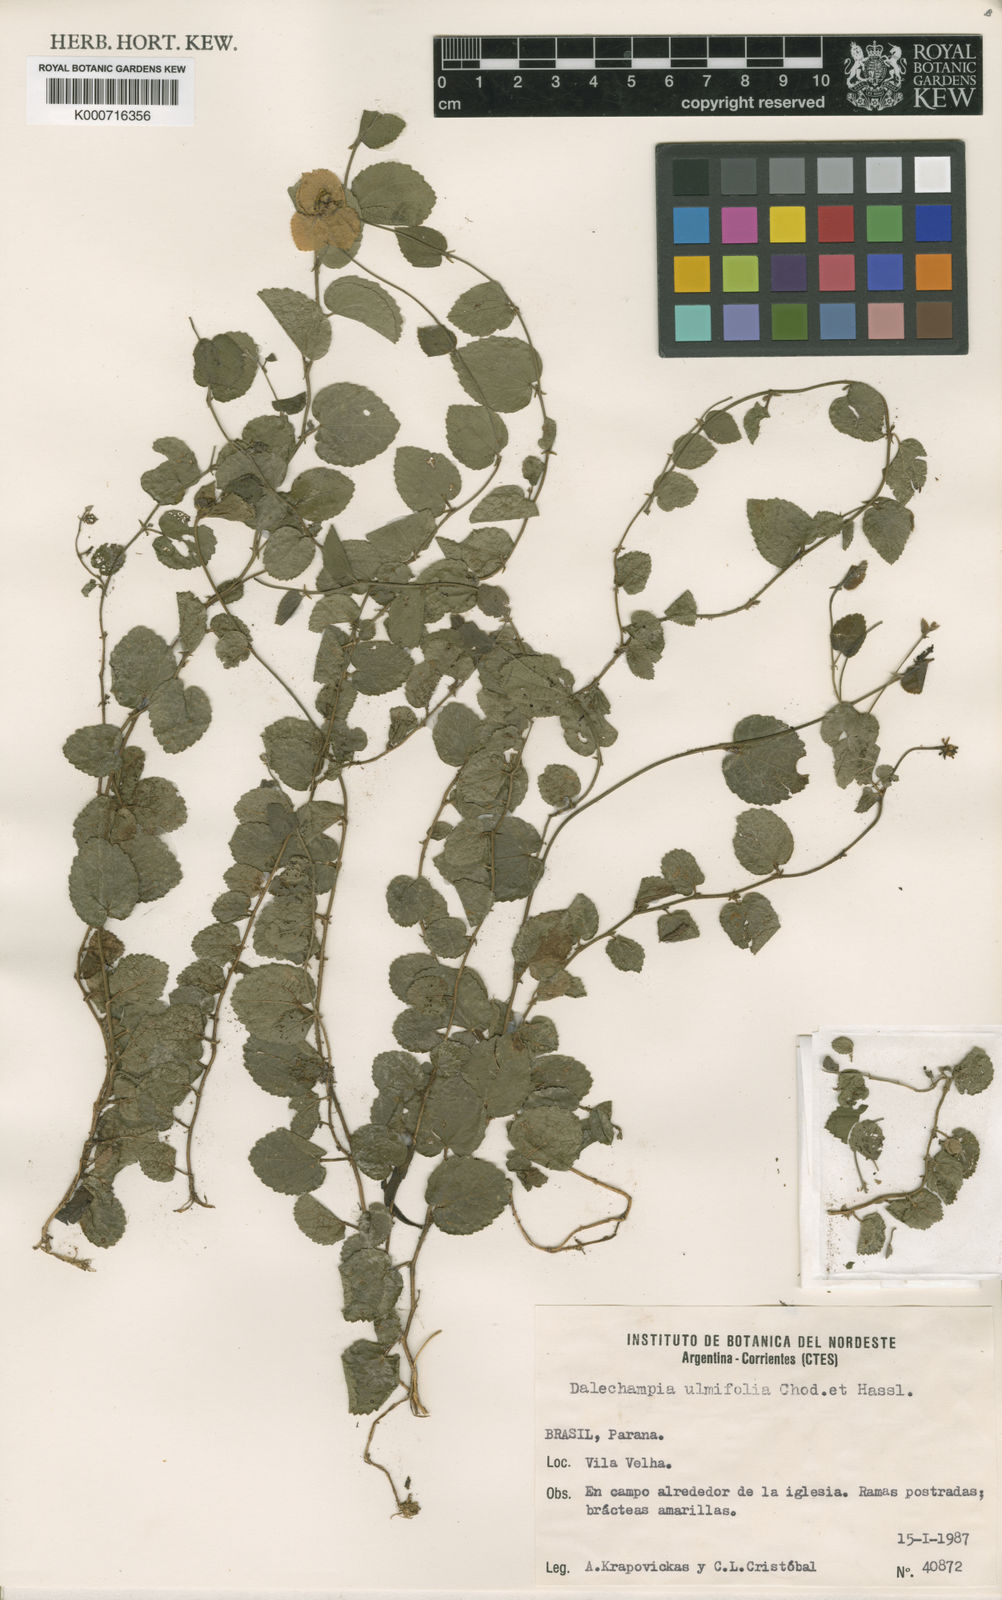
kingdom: Plantae
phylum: Tracheophyta
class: Magnoliopsida
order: Malpighiales
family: Euphorbiaceae
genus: Dalechampia
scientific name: Dalechampia ulmifolia
